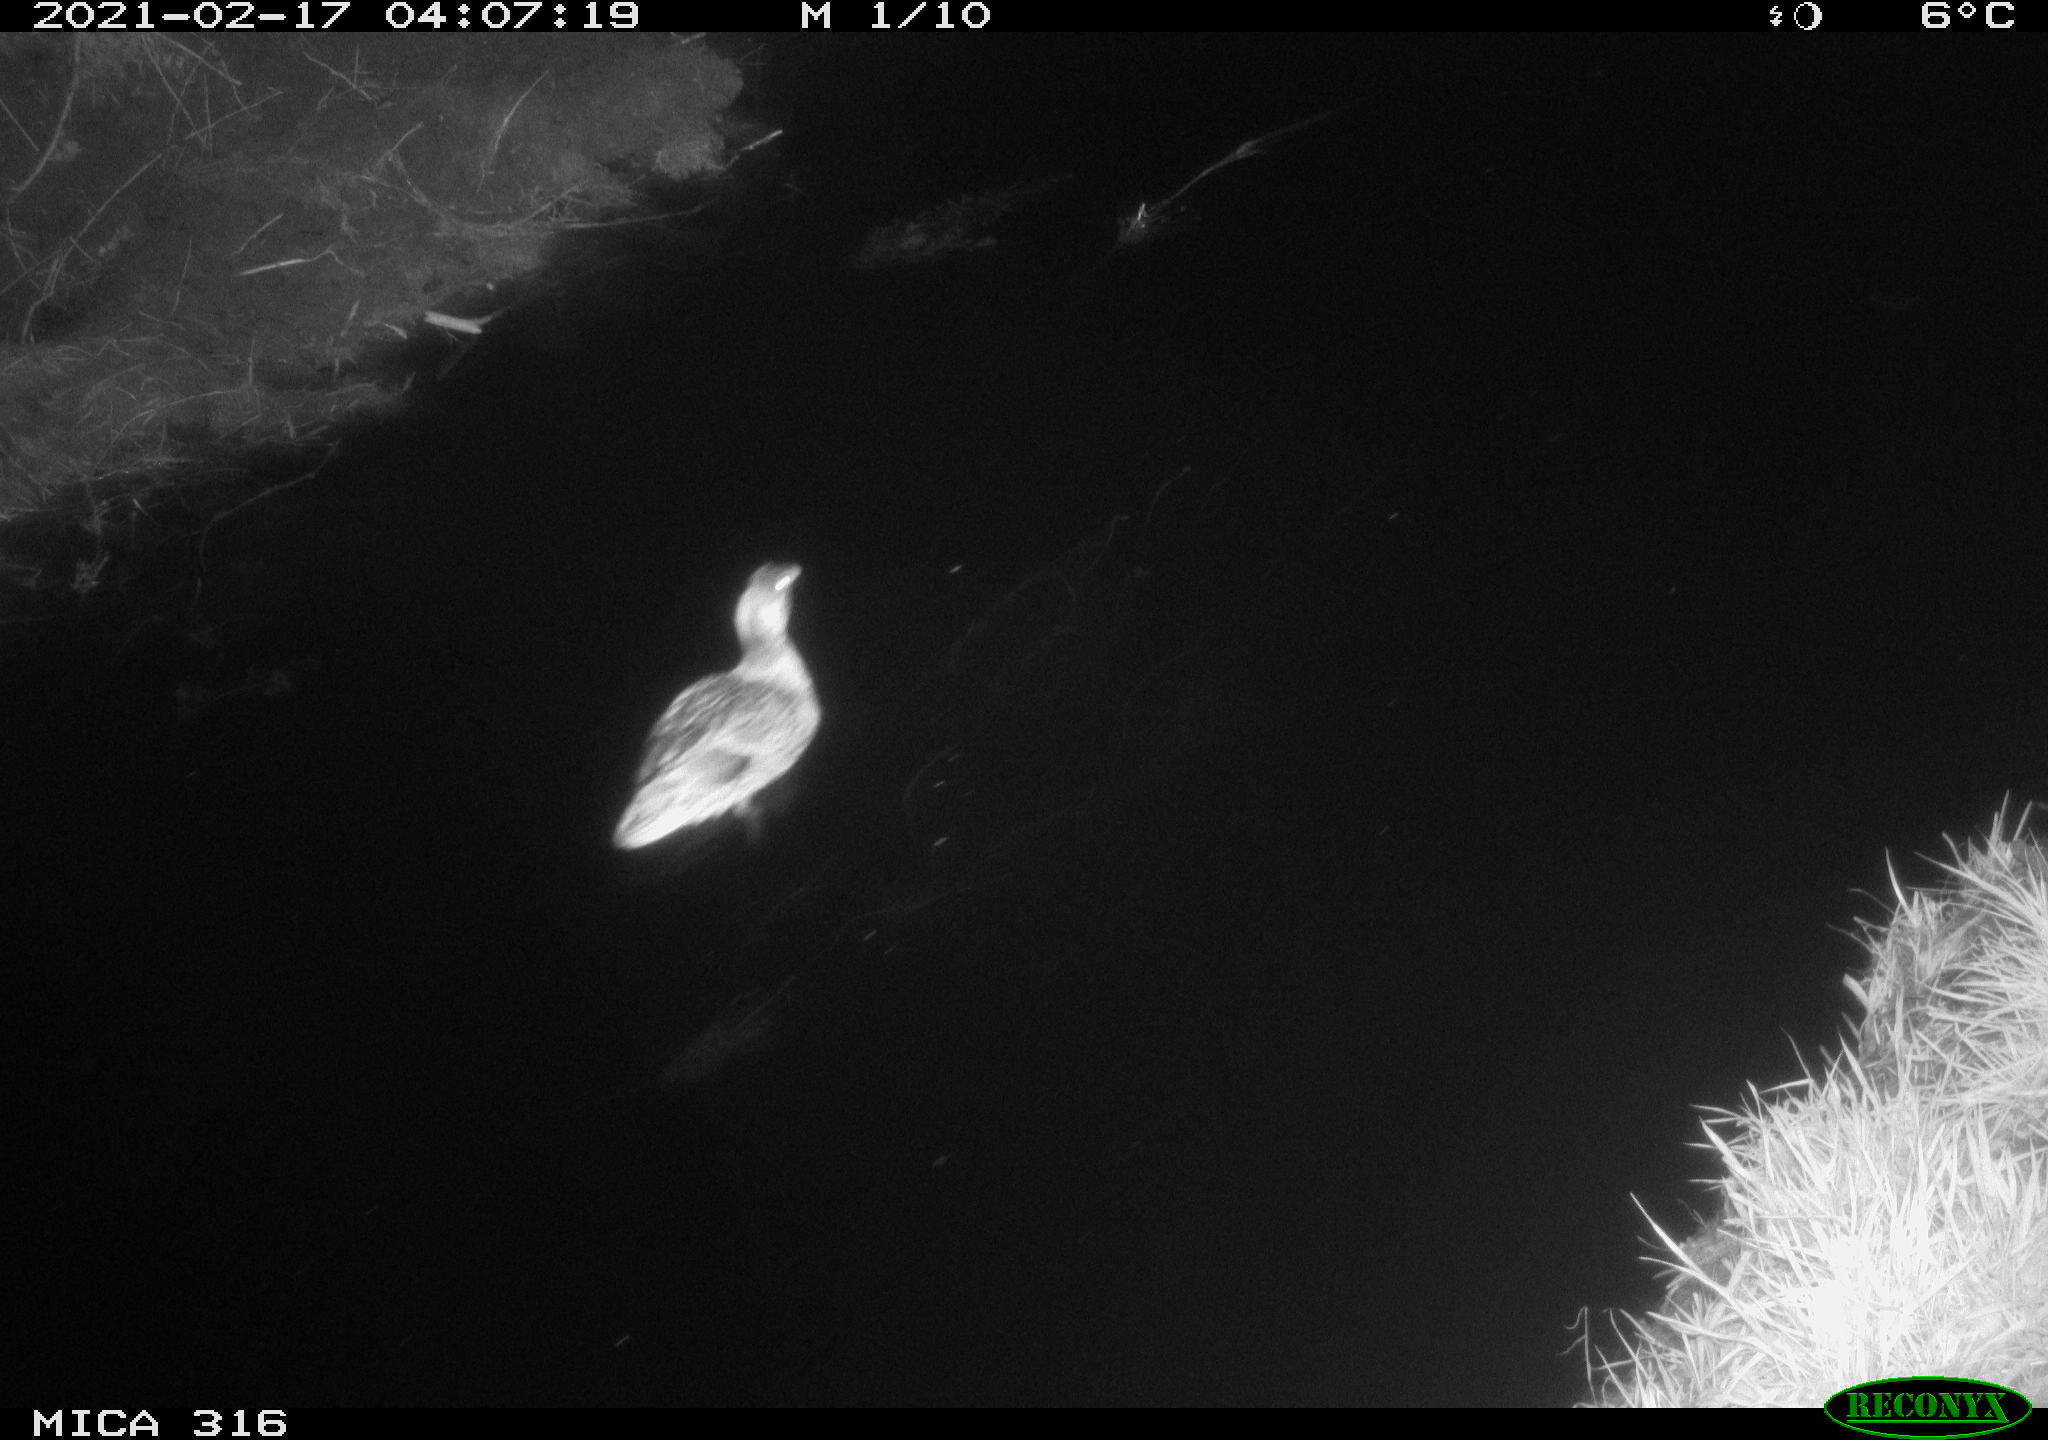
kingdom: Animalia
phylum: Chordata
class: Aves
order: Anseriformes
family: Anatidae
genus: Anas
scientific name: Anas platyrhynchos
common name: Mallard
